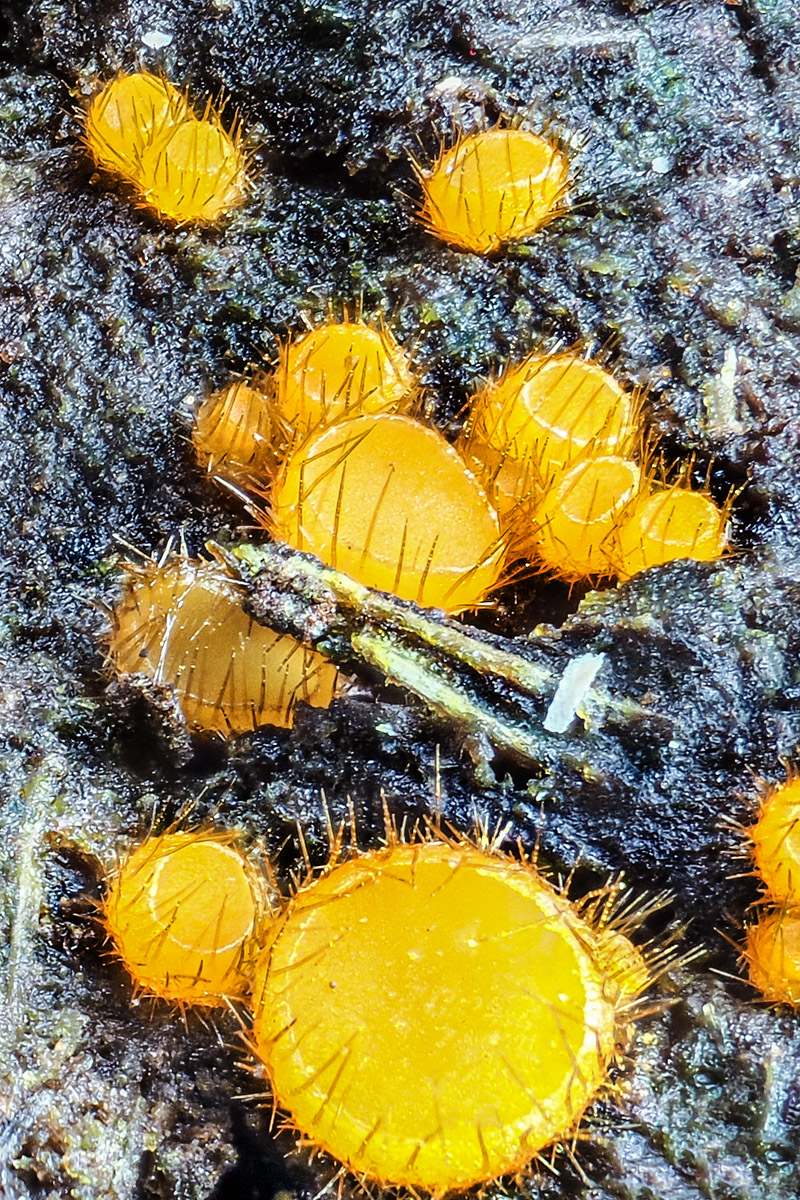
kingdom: Fungi
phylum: Ascomycota
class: Pezizomycetes
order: Pezizales
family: Pyronemataceae
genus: Cheilymenia
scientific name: Cheilymenia stercorea
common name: gødnings-hårbæger
